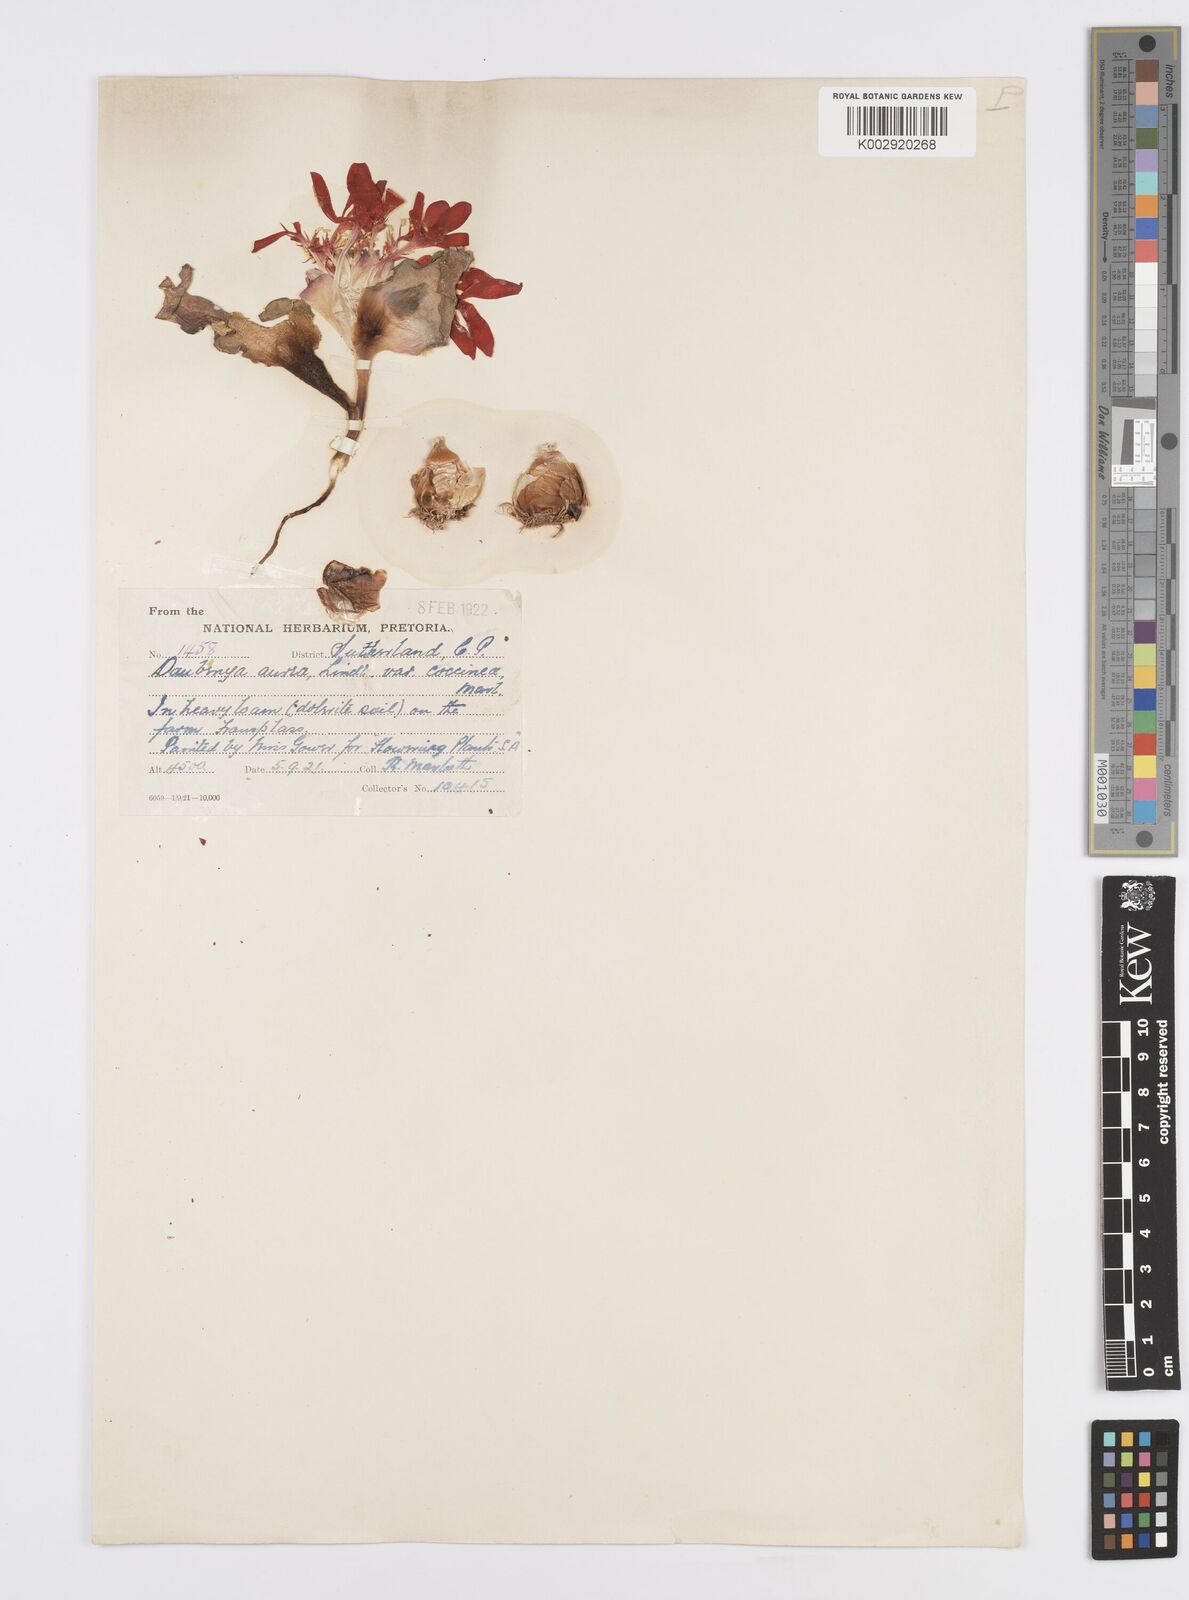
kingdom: Plantae
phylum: Tracheophyta
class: Liliopsida
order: Asparagales
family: Asparagaceae
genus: Daubenya
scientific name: Daubenya aurea
